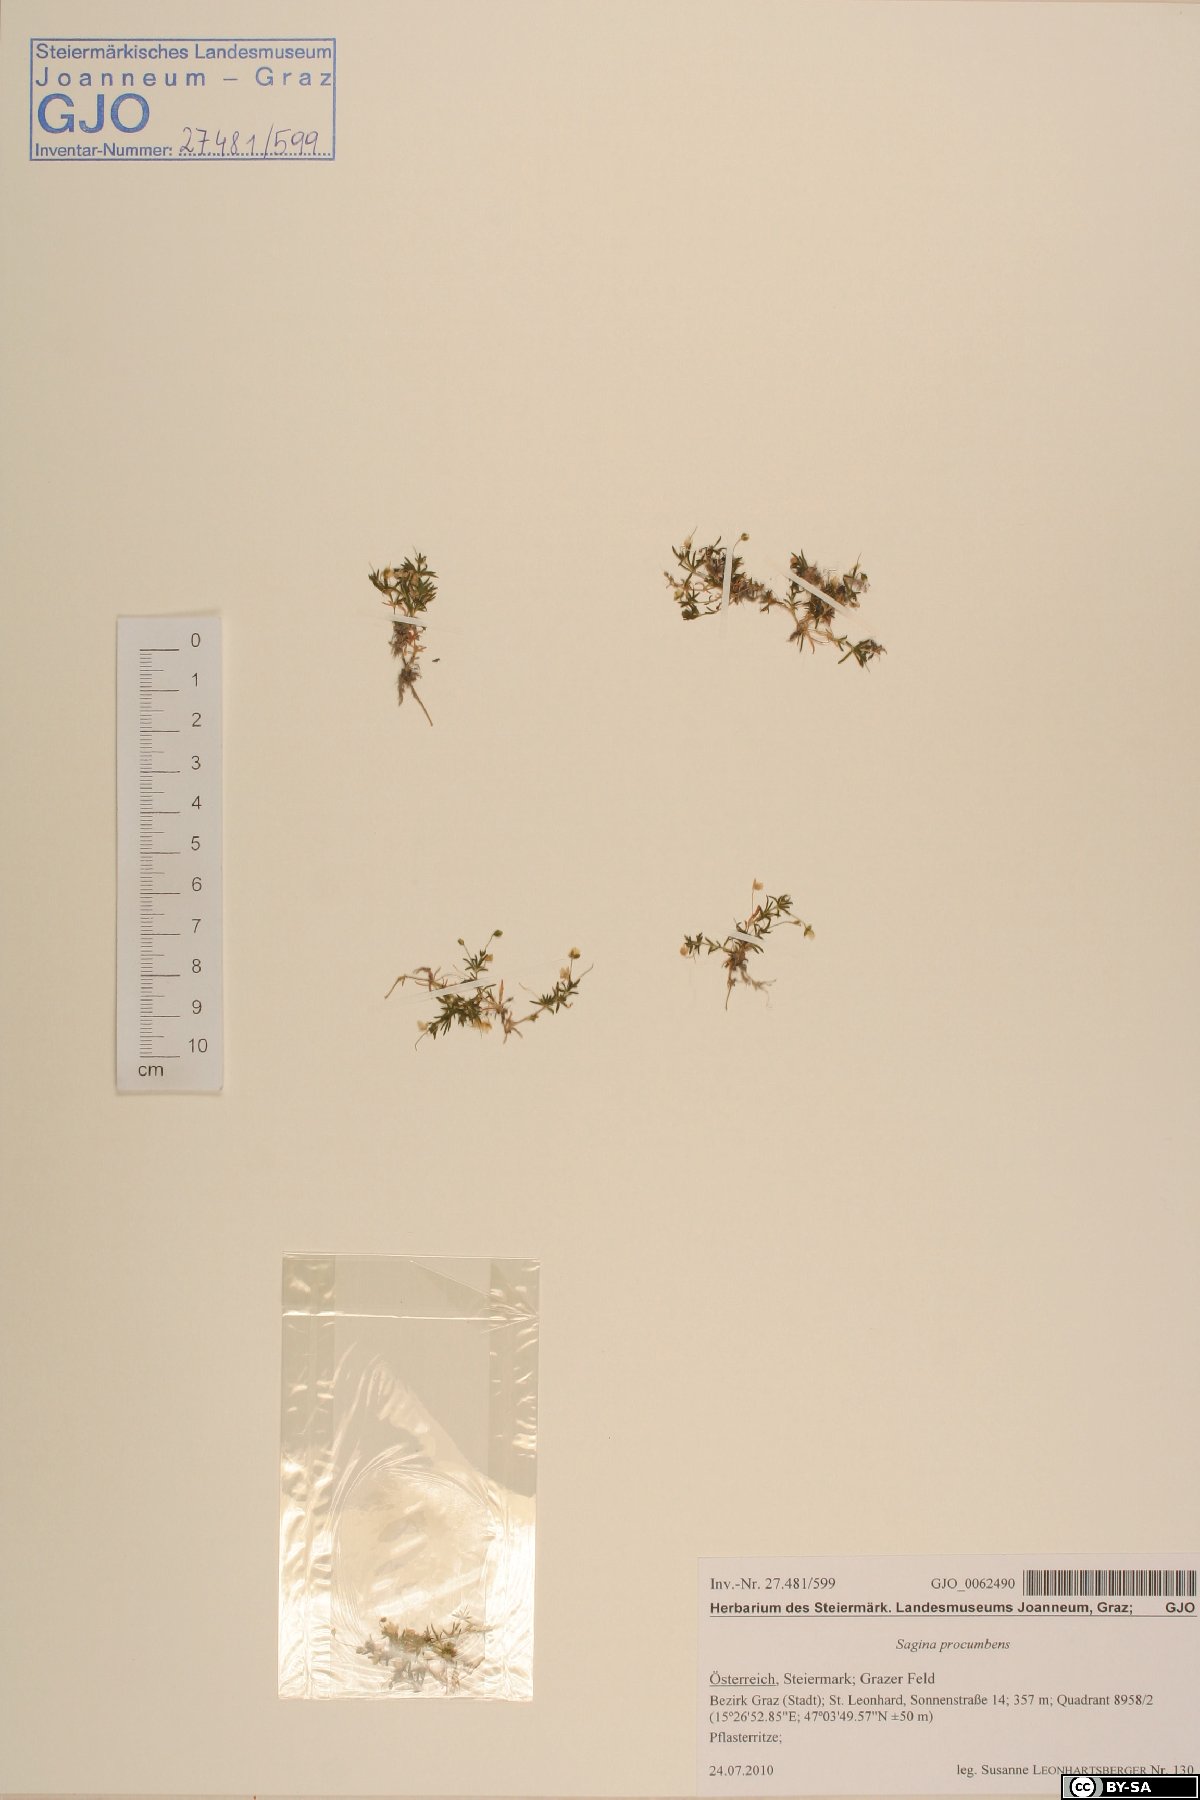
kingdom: Plantae
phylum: Tracheophyta
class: Magnoliopsida
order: Caryophyllales
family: Caryophyllaceae
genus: Sagina
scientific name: Sagina procumbens
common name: Procumbent pearlwort
